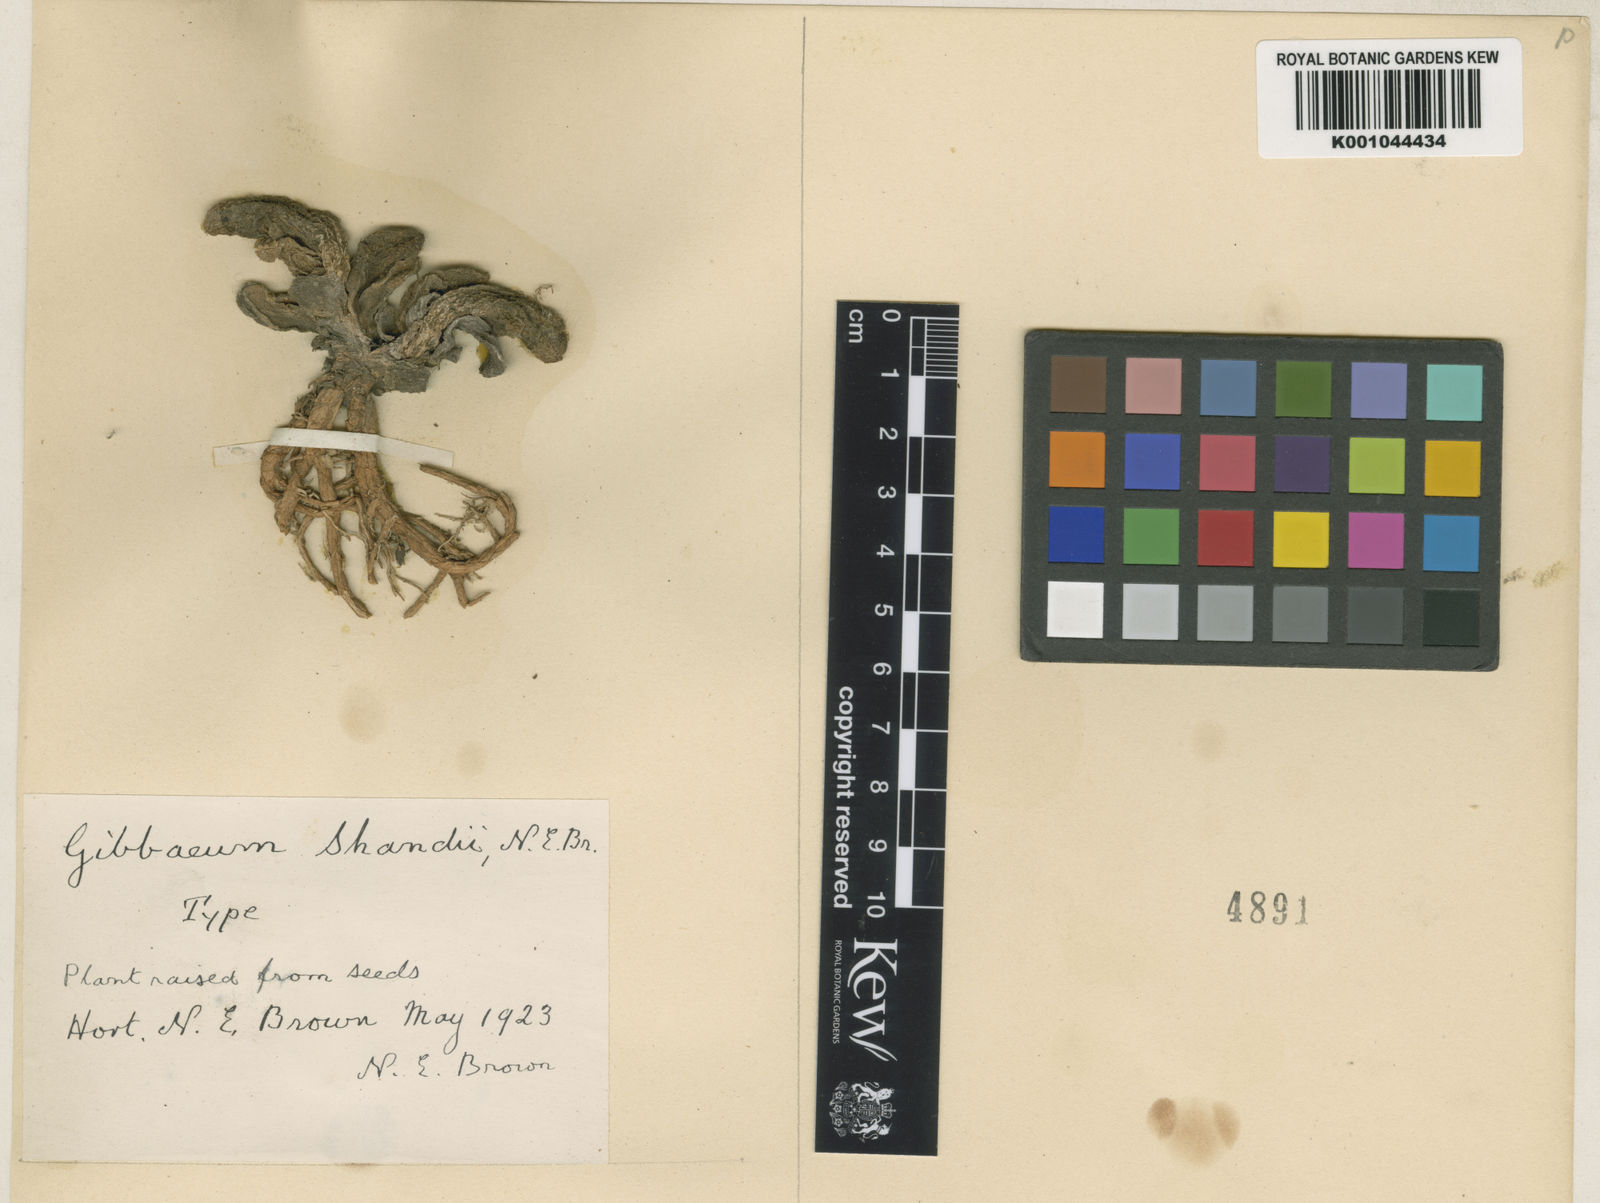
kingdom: Plantae
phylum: Tracheophyta
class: Magnoliopsida
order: Caryophyllales
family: Aizoaceae
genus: Gibbaeum
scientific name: Gibbaeum shandii
